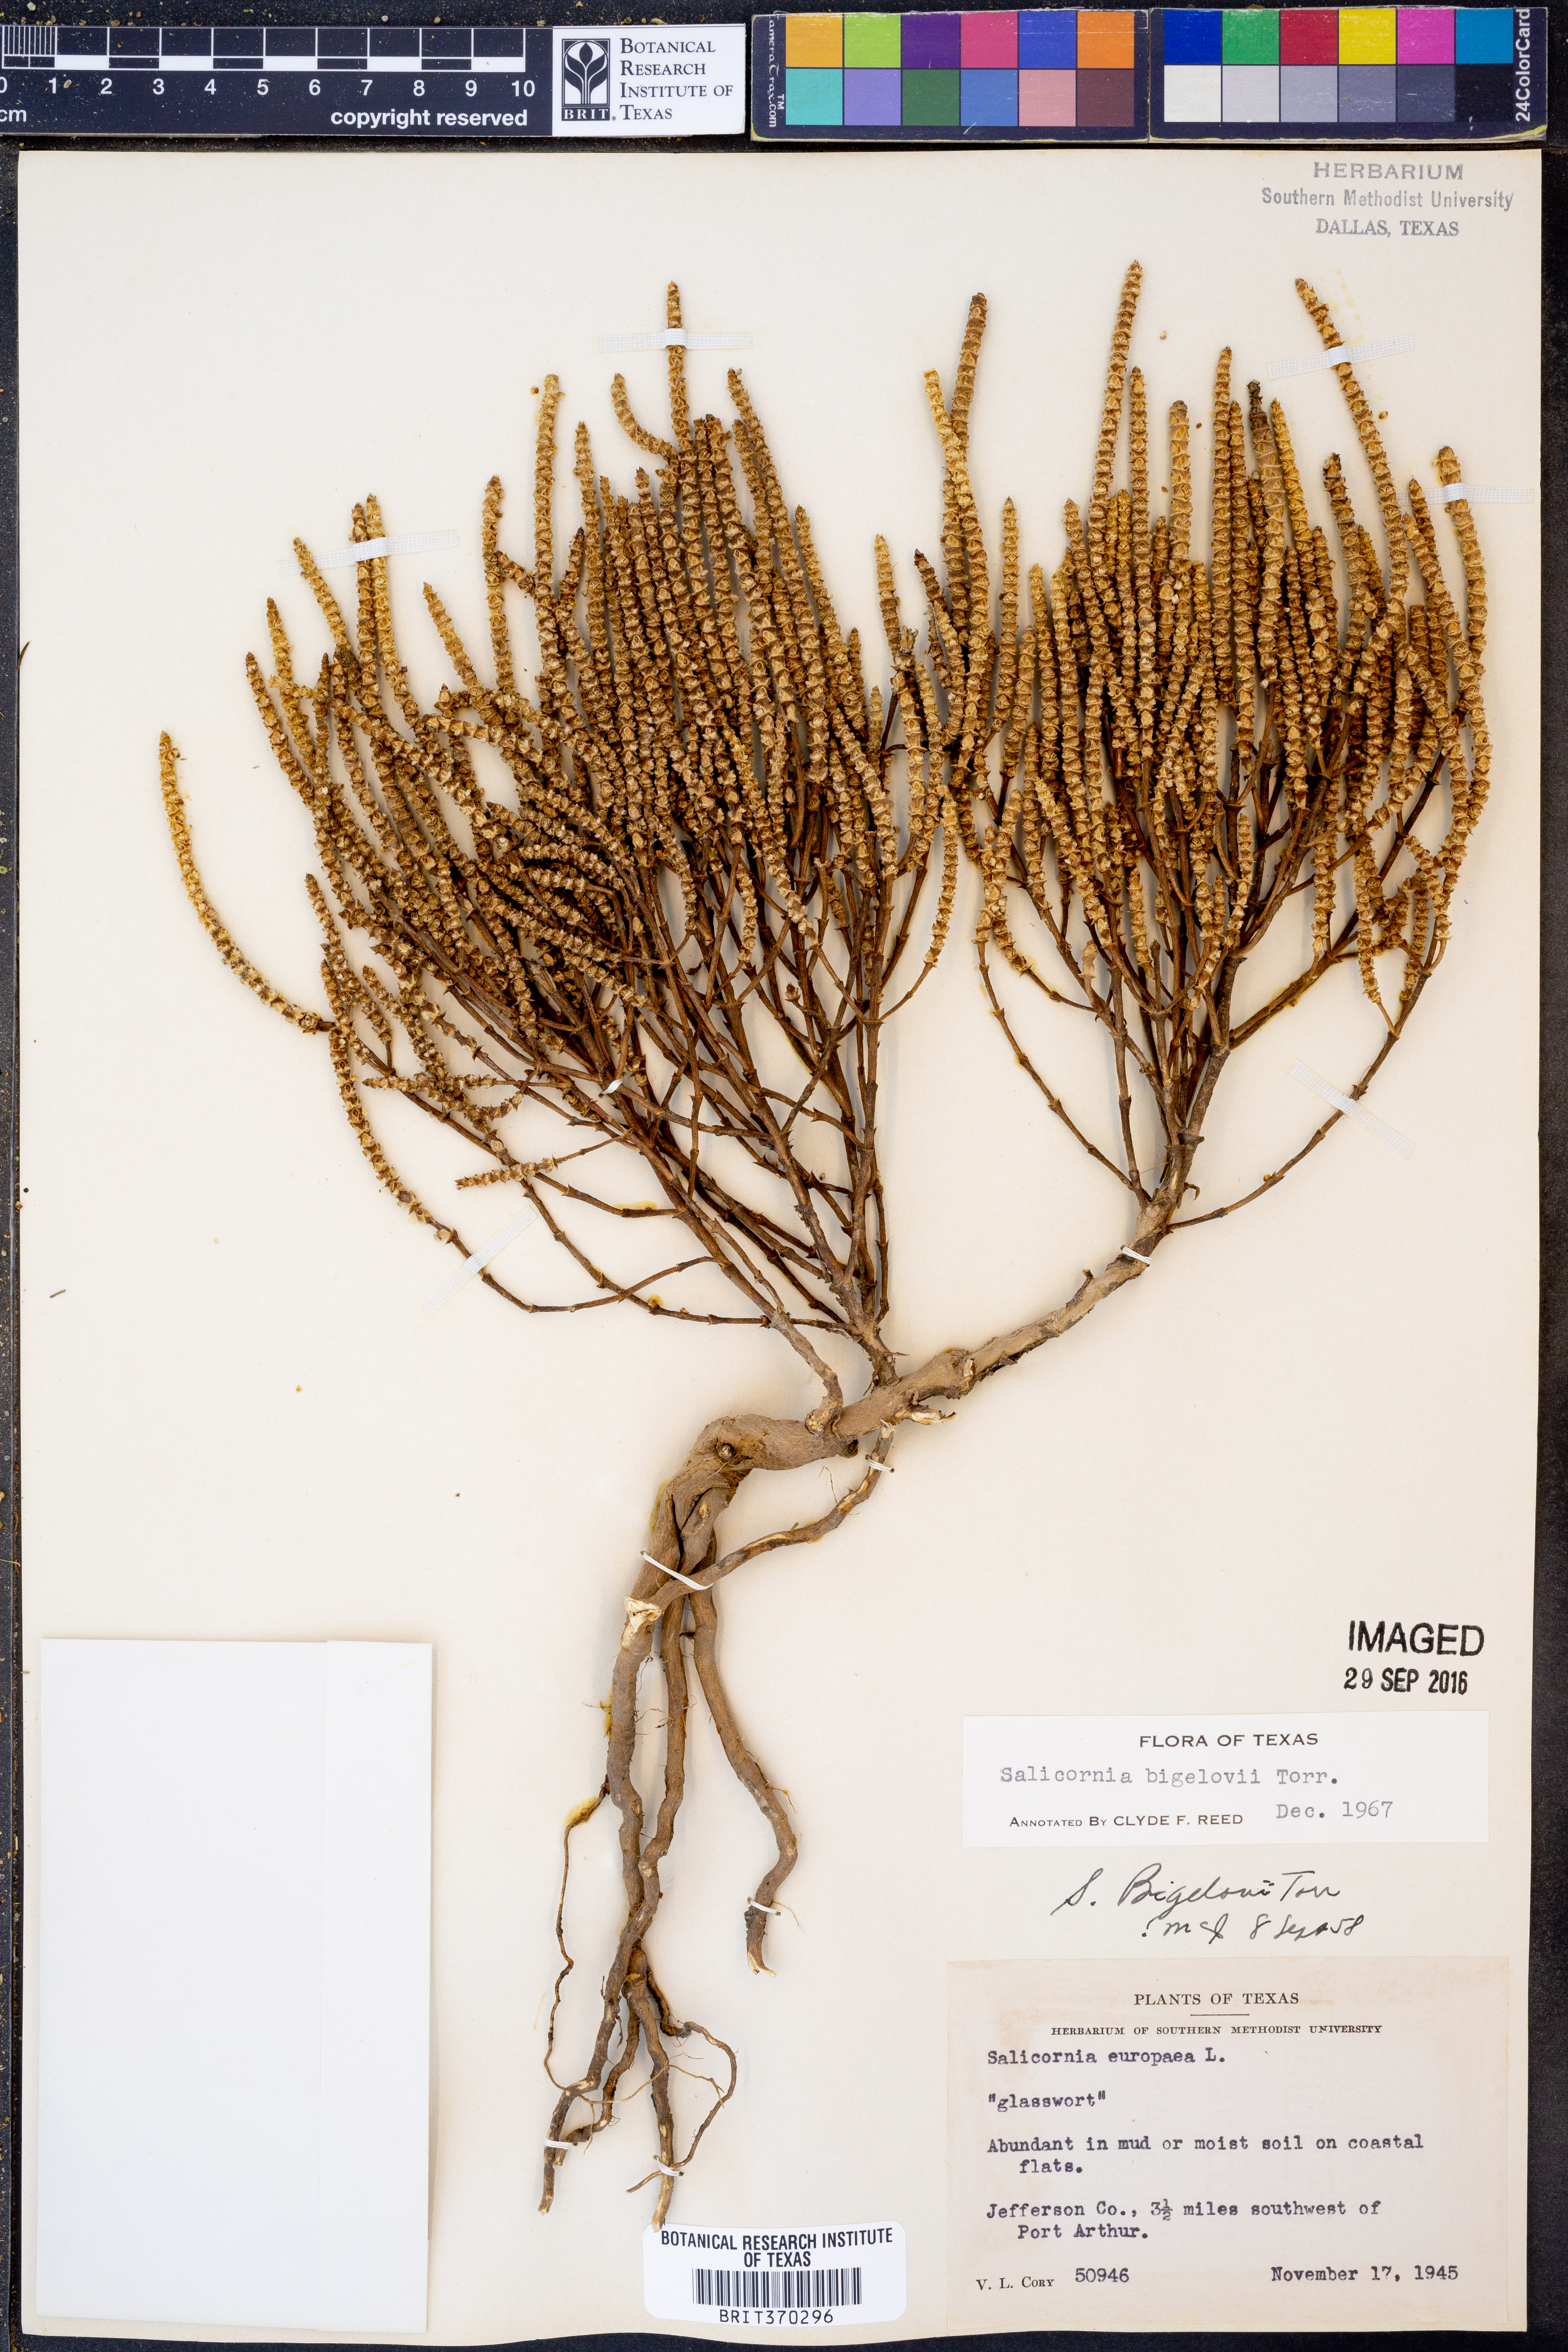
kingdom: Plantae
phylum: Tracheophyta
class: Magnoliopsida
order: Caryophyllales
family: Amaranthaceae
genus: Salicornia
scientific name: Salicornia bigelovii
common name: Dwarf glasswort
